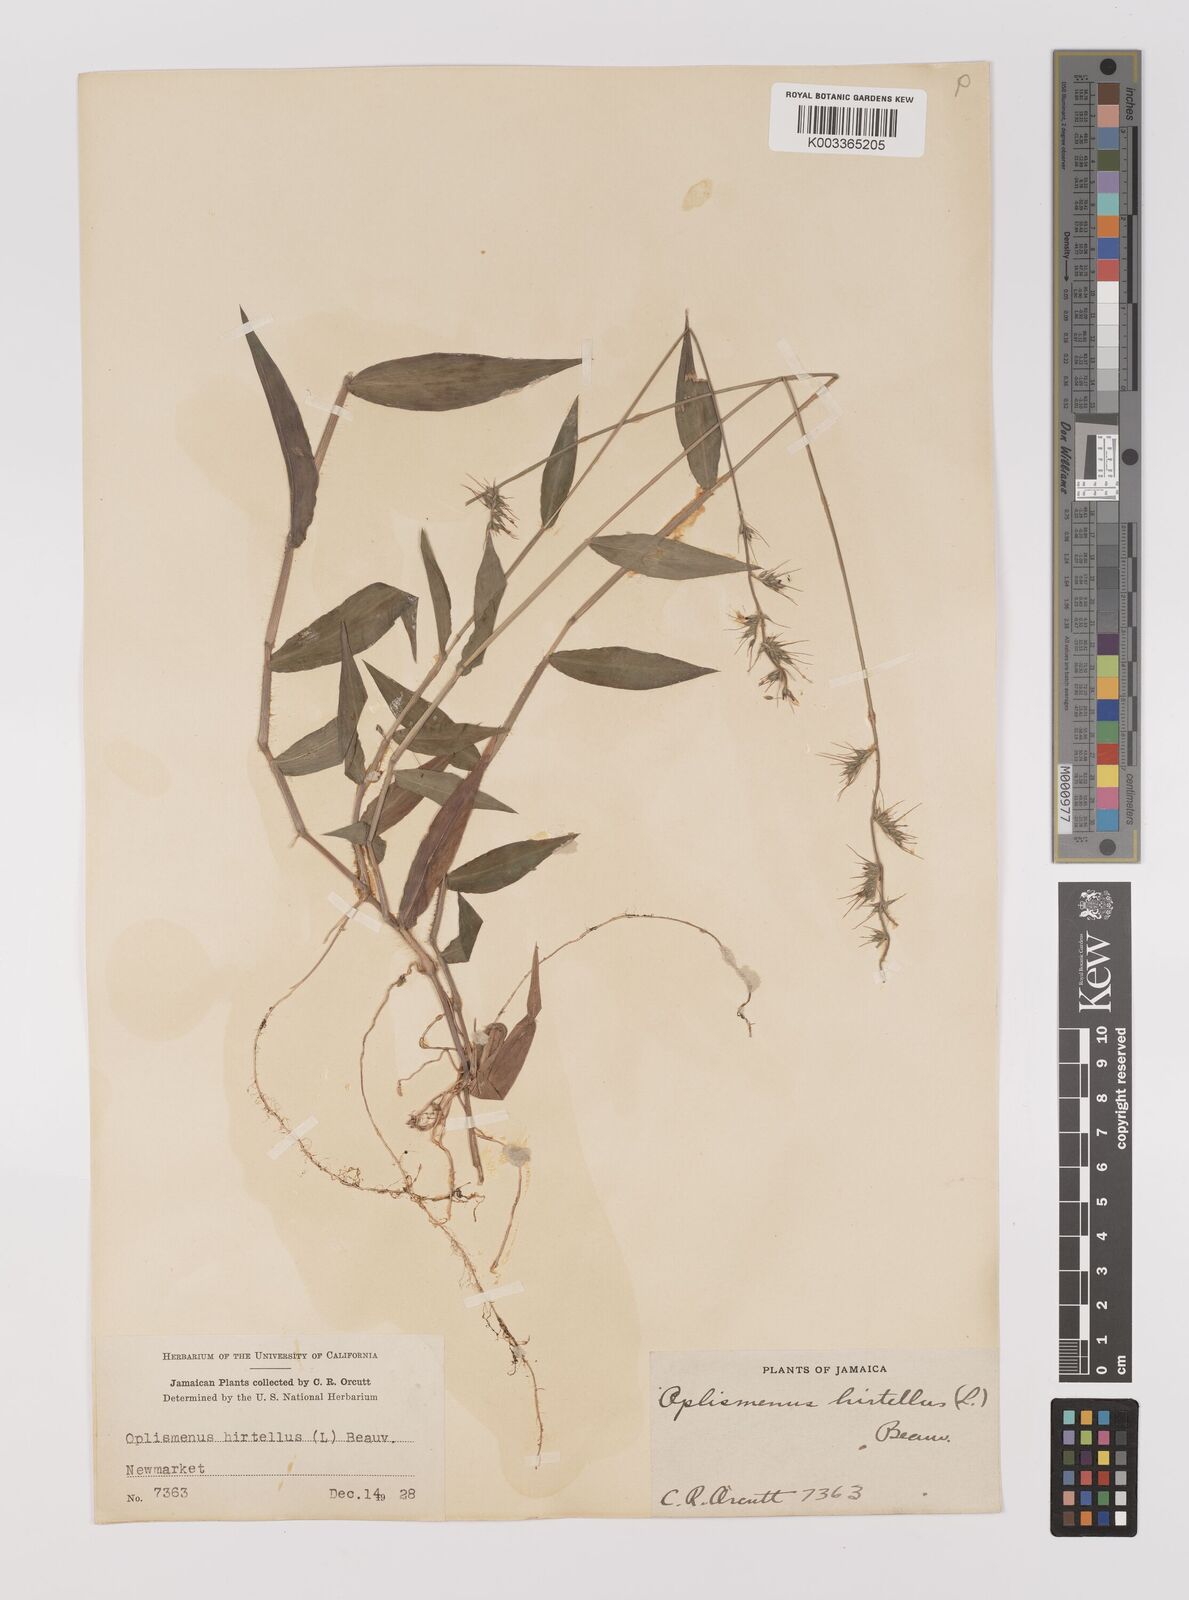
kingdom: Plantae
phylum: Tracheophyta
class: Liliopsida
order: Poales
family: Poaceae
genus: Oplismenus
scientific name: Oplismenus hirtellus
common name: Basketgrass
